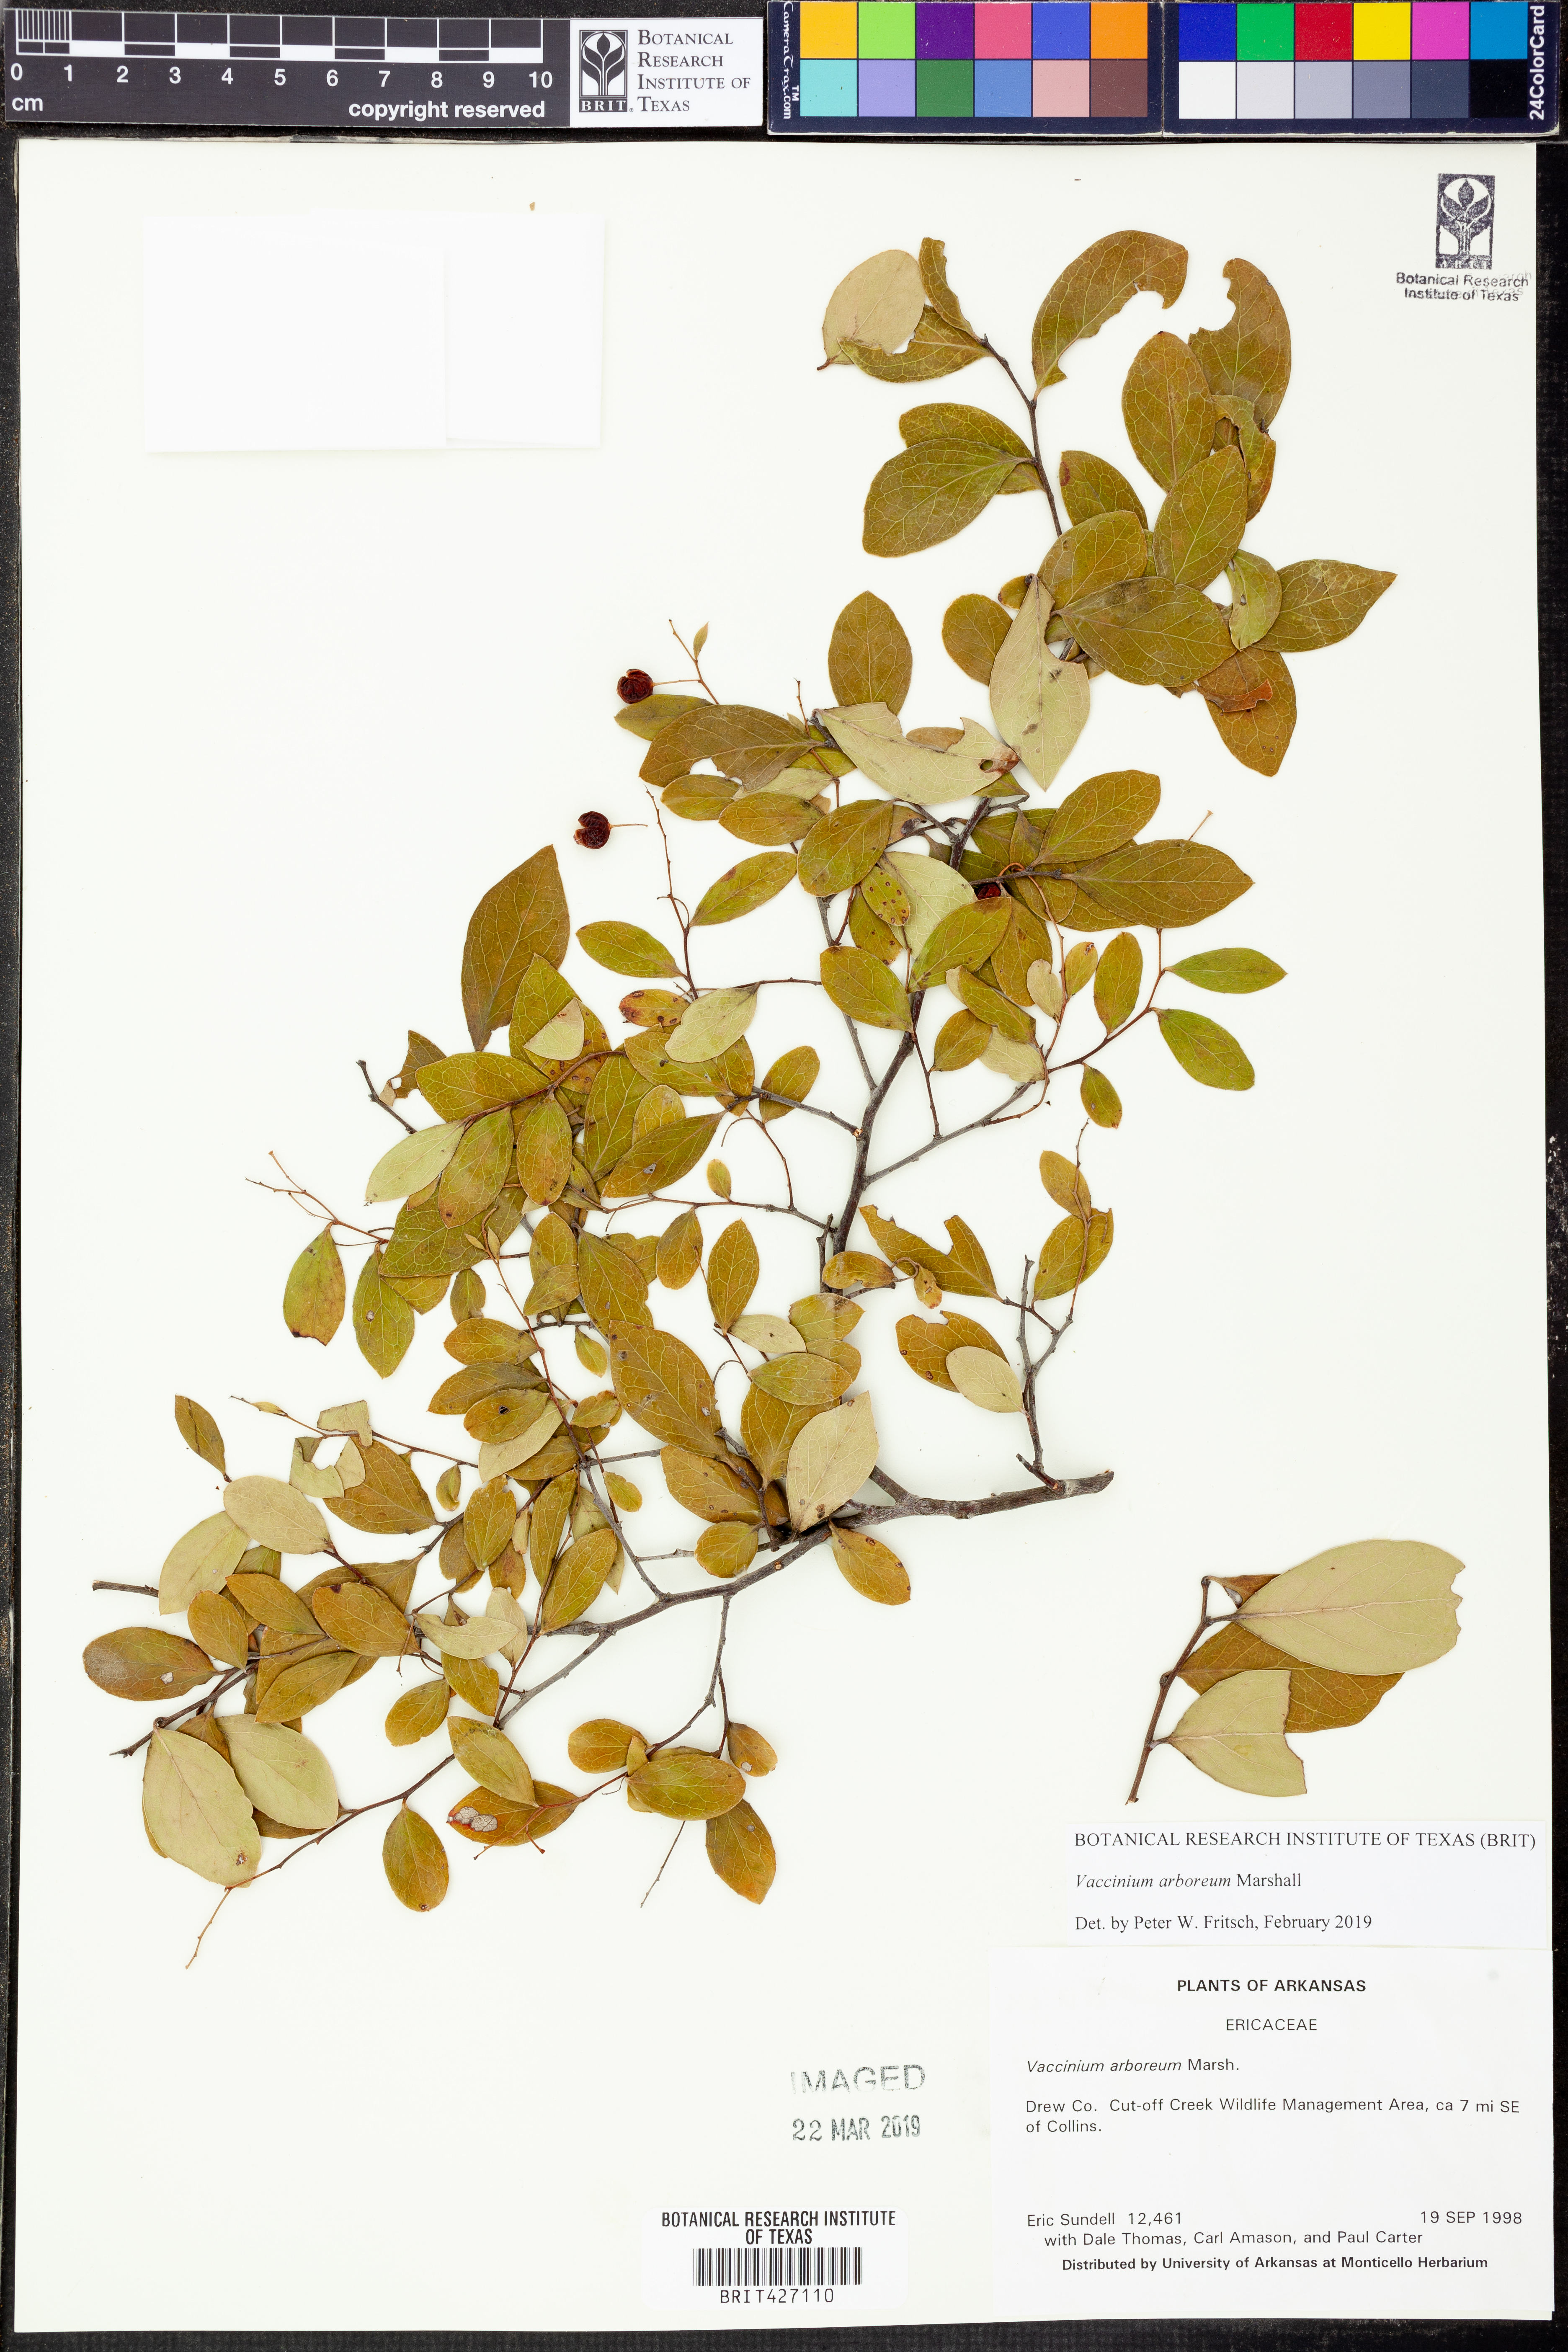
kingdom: Plantae
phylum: Tracheophyta
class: Magnoliopsida
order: Ericales
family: Ericaceae
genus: Vaccinium
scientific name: Vaccinium arboreum
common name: Farkleberry
